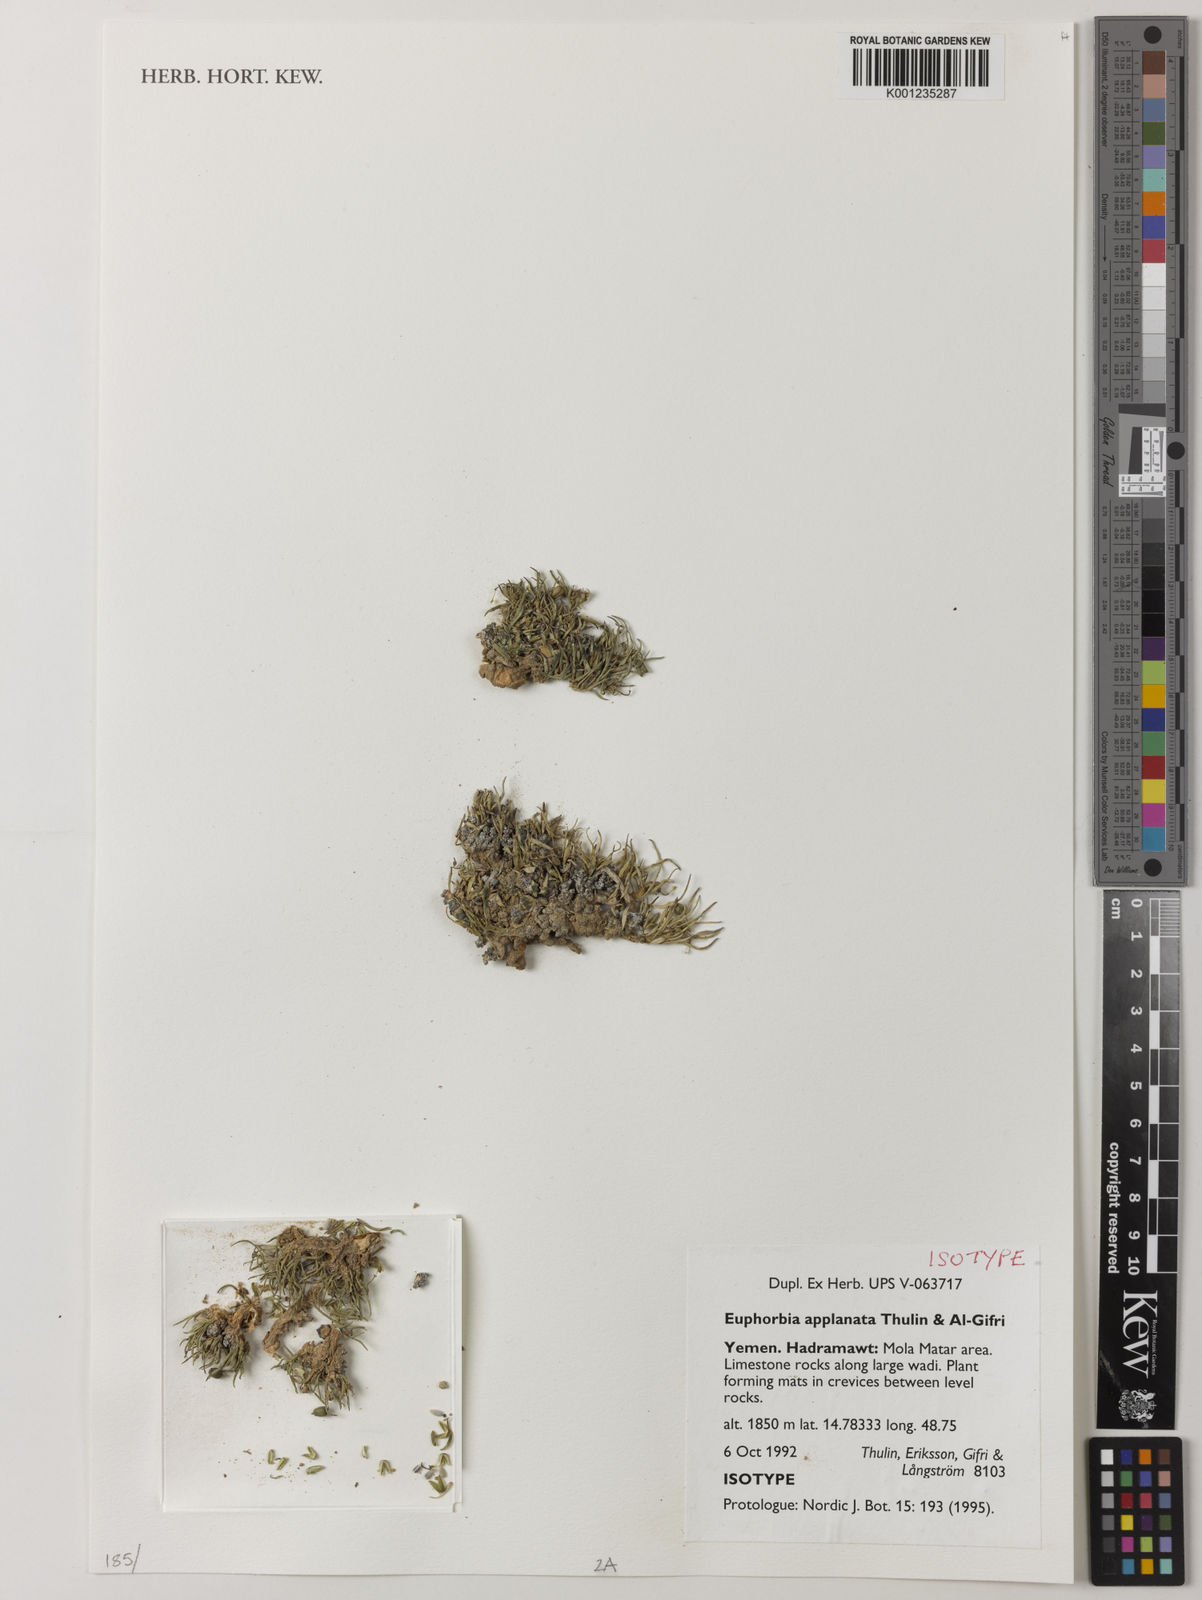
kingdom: Plantae
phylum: Tracheophyta
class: Magnoliopsida
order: Malpighiales
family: Euphorbiaceae
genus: Euphorbia
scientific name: Euphorbia applanata
